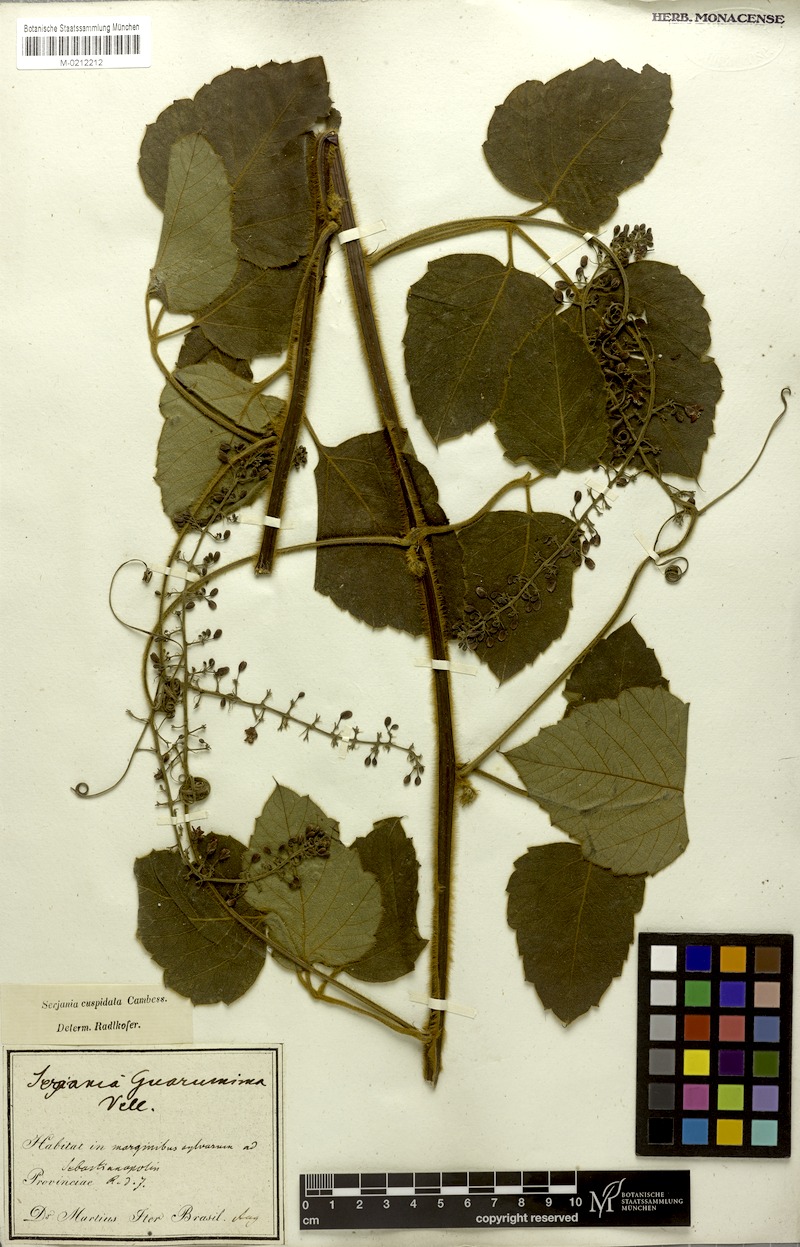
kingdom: Plantae
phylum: Tracheophyta
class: Magnoliopsida
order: Sapindales
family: Sapindaceae
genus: Serjania
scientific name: Serjania ferruginea
